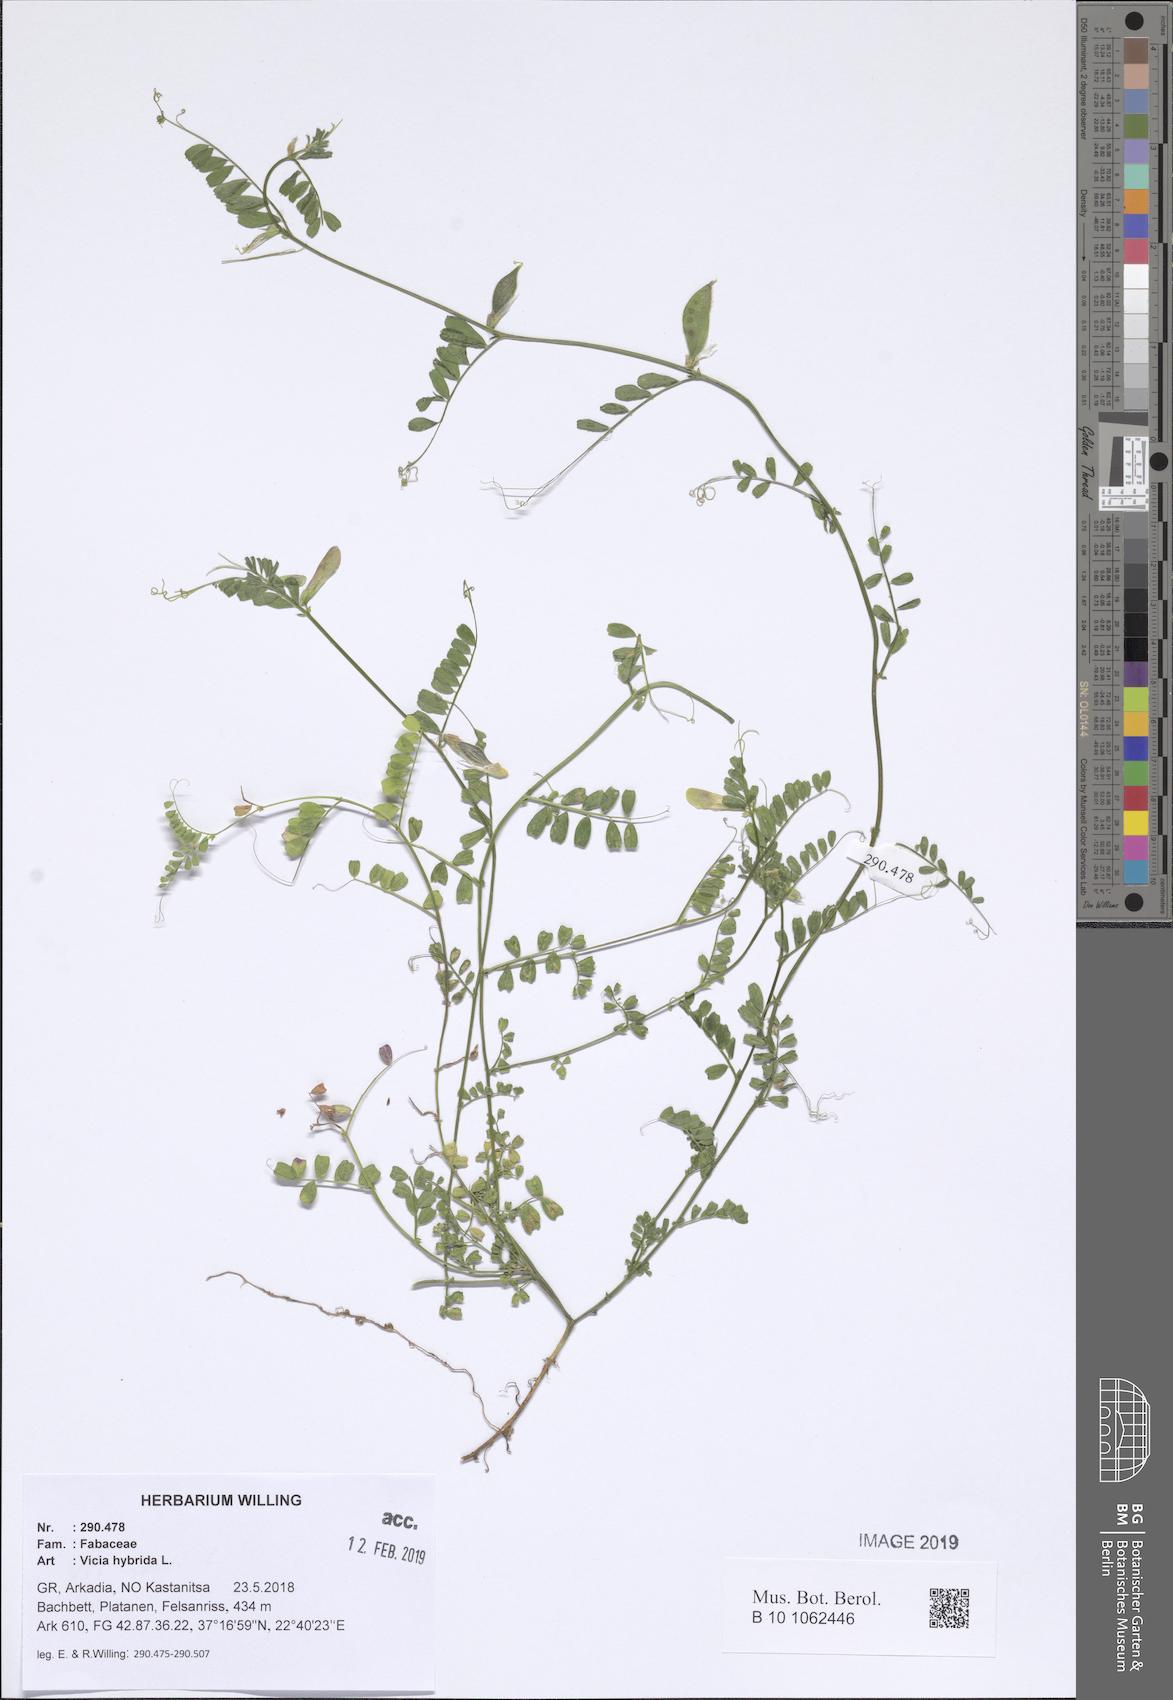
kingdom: Plantae
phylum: Tracheophyta
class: Magnoliopsida
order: Fabales
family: Fabaceae
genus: Vicia
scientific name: Vicia hybrida
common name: Hairy yellow vetch
